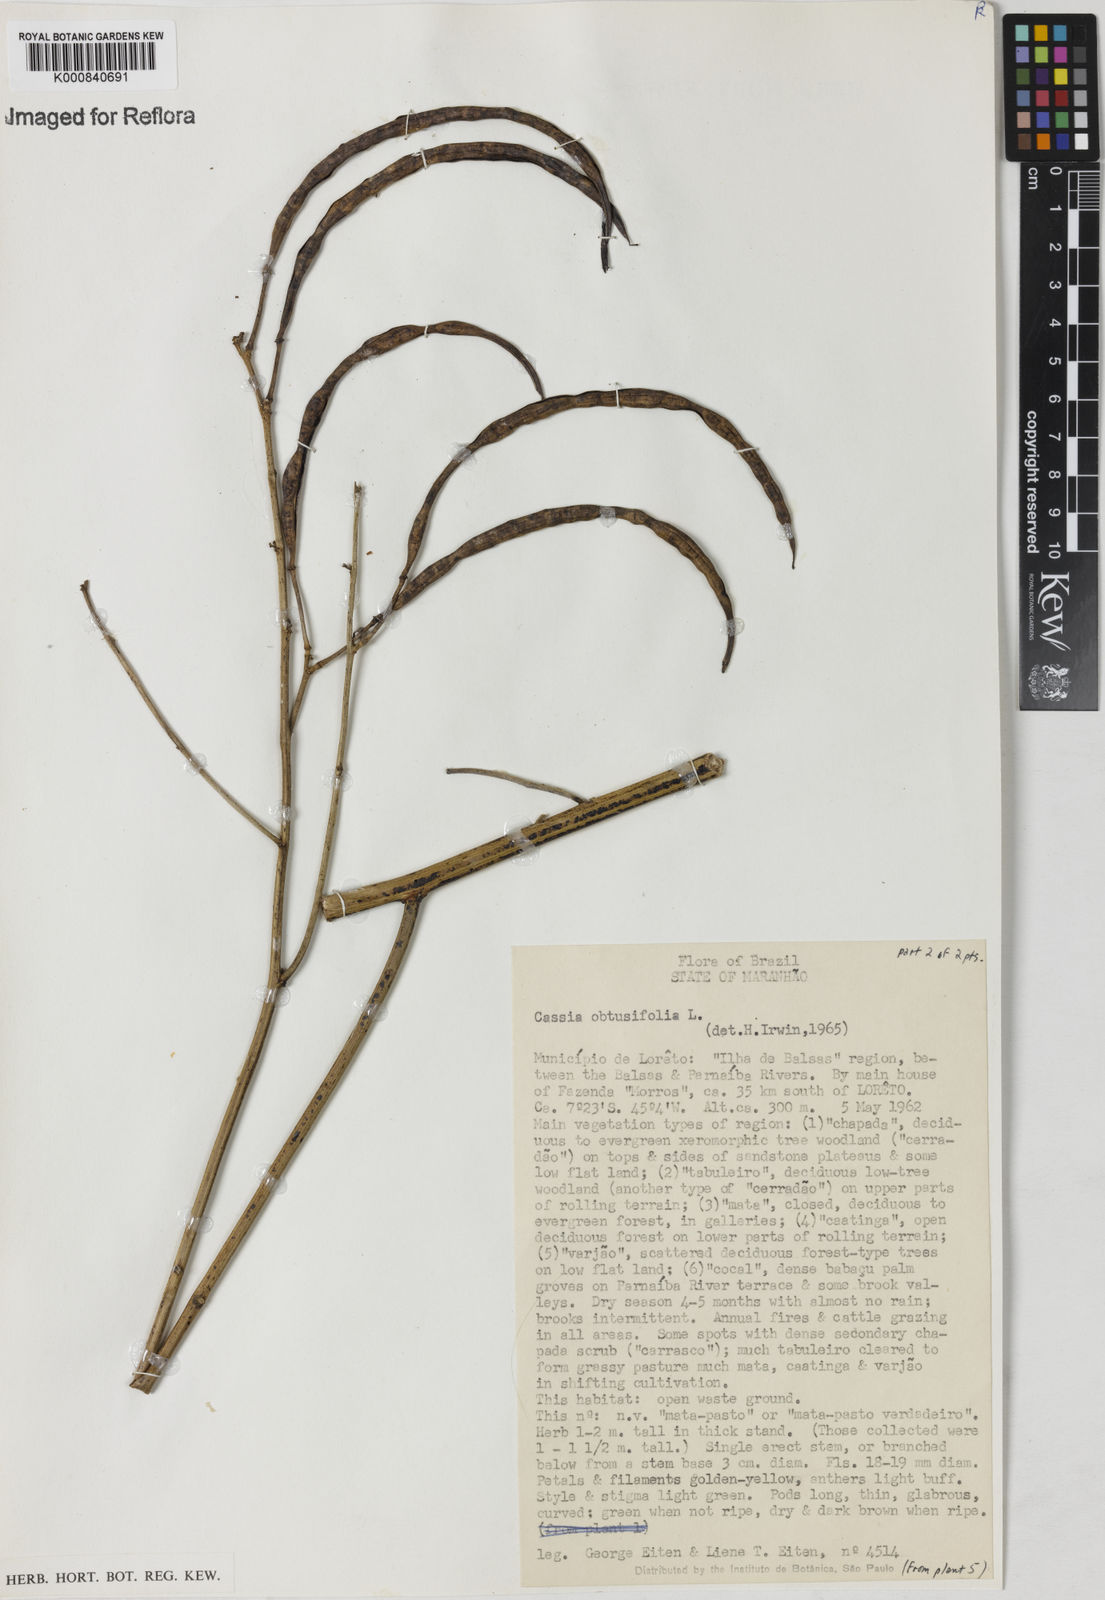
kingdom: Plantae
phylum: Tracheophyta
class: Magnoliopsida
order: Fabales
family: Fabaceae
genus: Senna
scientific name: Senna obtusifolia
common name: Java-bean
